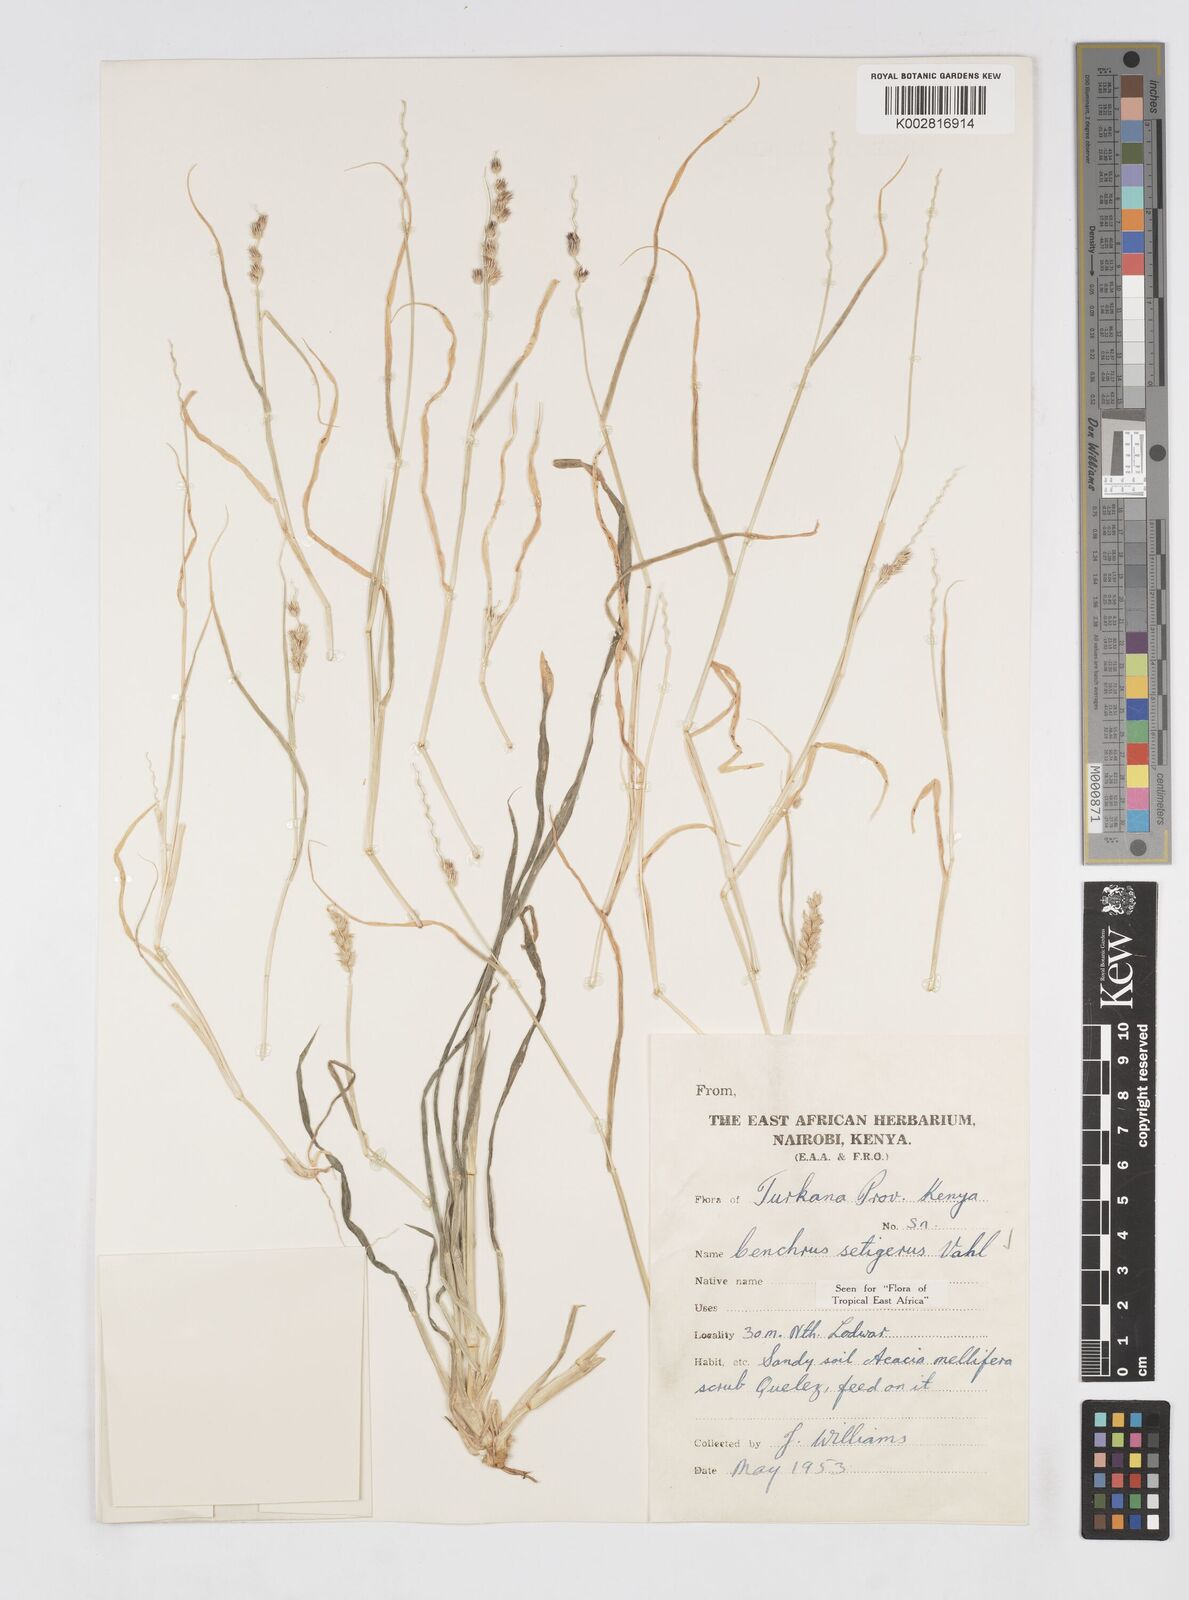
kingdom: Plantae
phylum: Tracheophyta
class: Liliopsida
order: Poales
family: Poaceae
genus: Cenchrus
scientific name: Cenchrus setigerus
